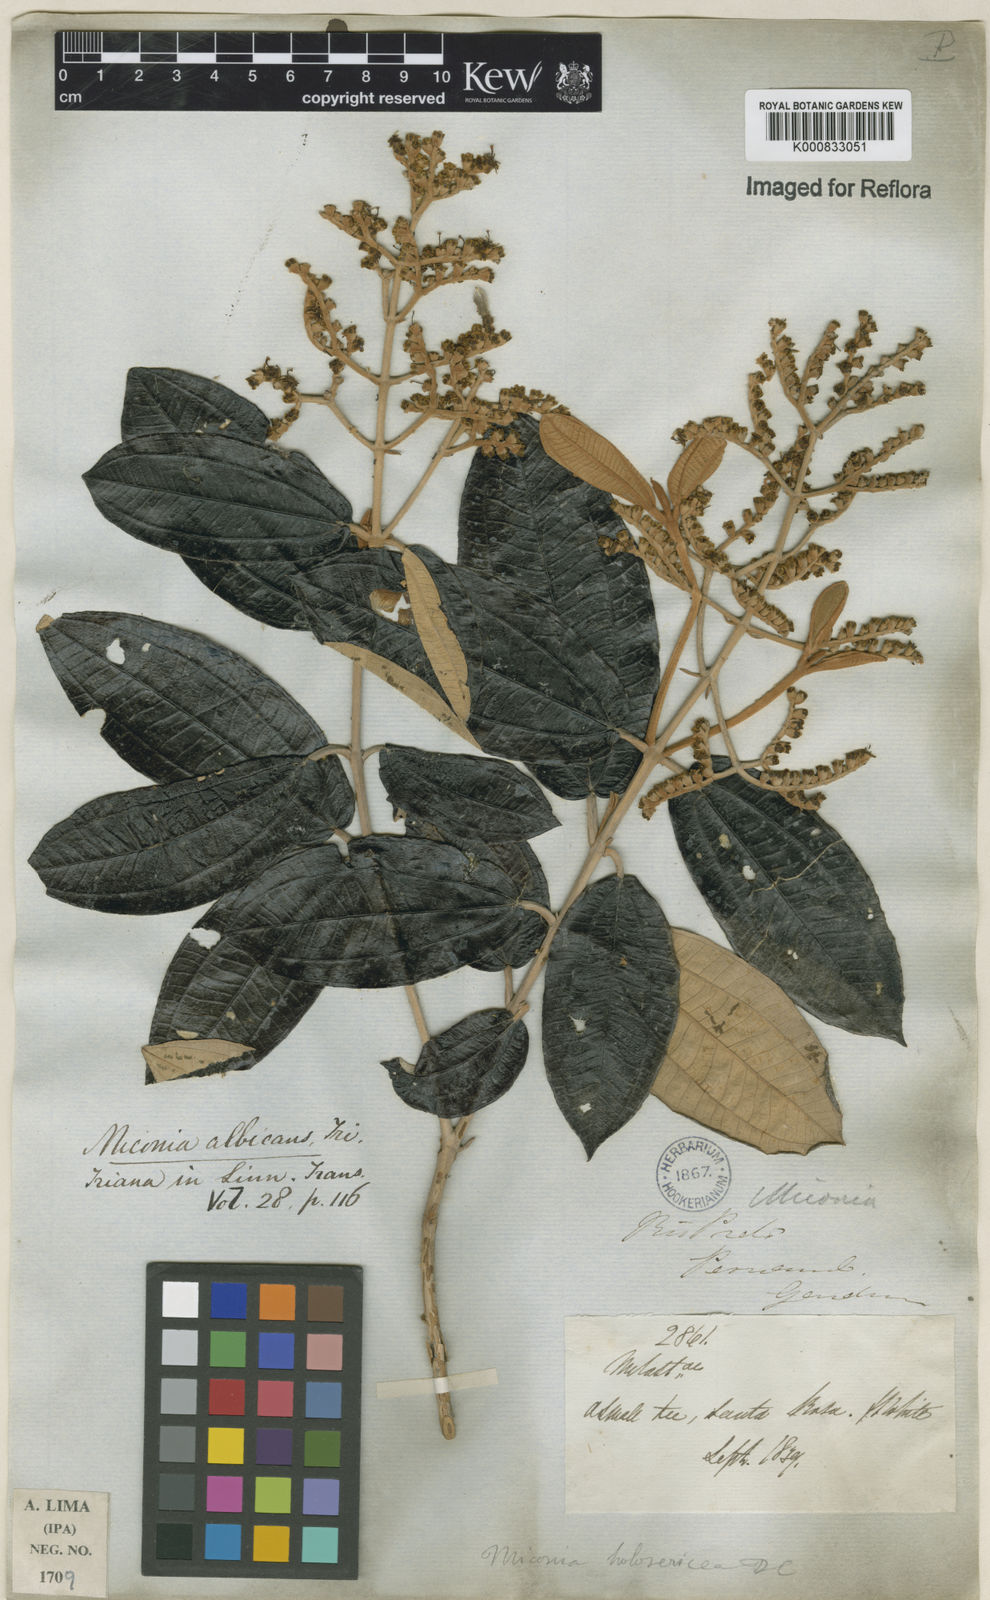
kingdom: Plantae
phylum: Tracheophyta
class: Magnoliopsida
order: Myrtales
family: Melastomataceae
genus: Miconia
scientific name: Miconia albicans
